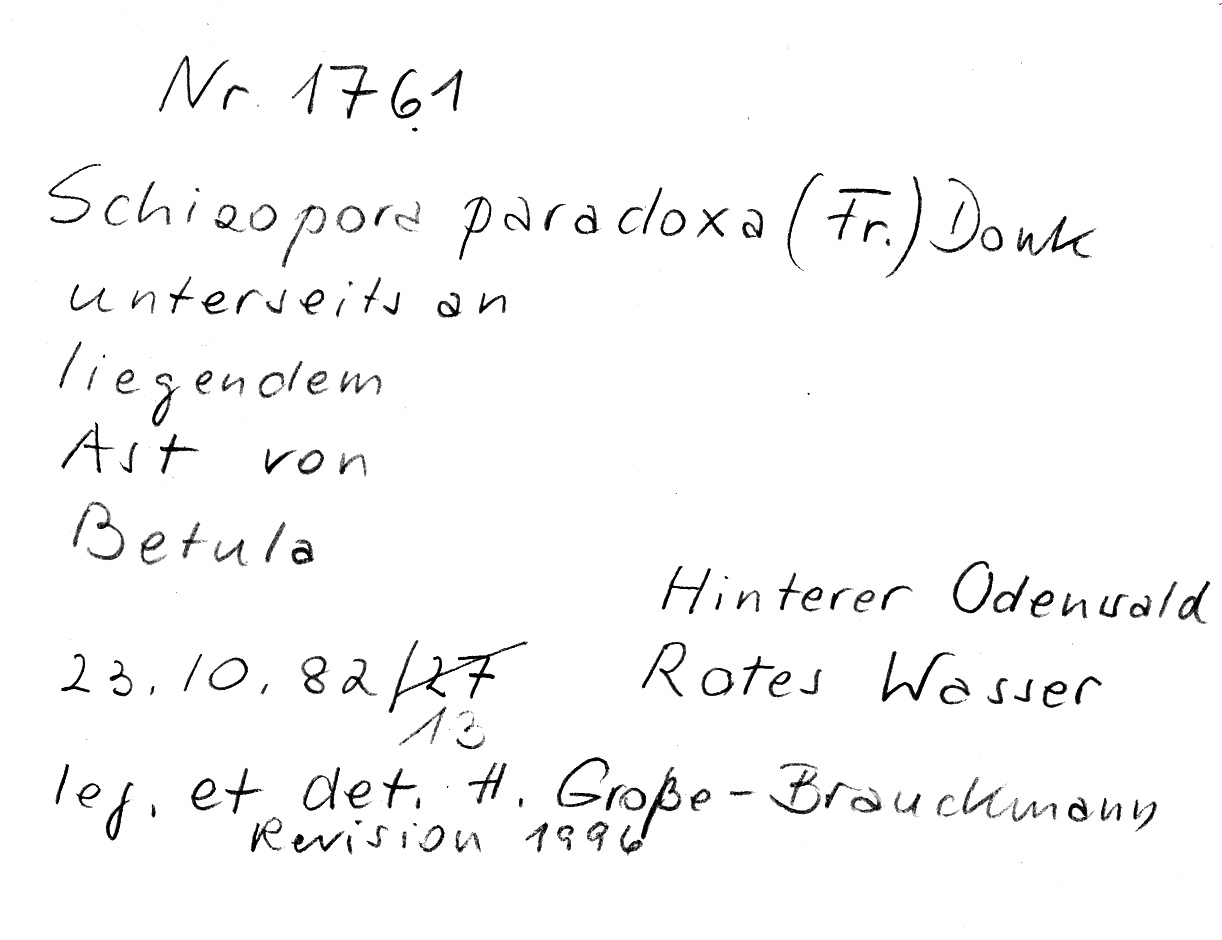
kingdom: Fungi
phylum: Basidiomycota
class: Agaricomycetes
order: Hymenochaetales
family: Schizoporaceae
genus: Schizopora
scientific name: Schizopora paradoxa
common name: Split porecrust
